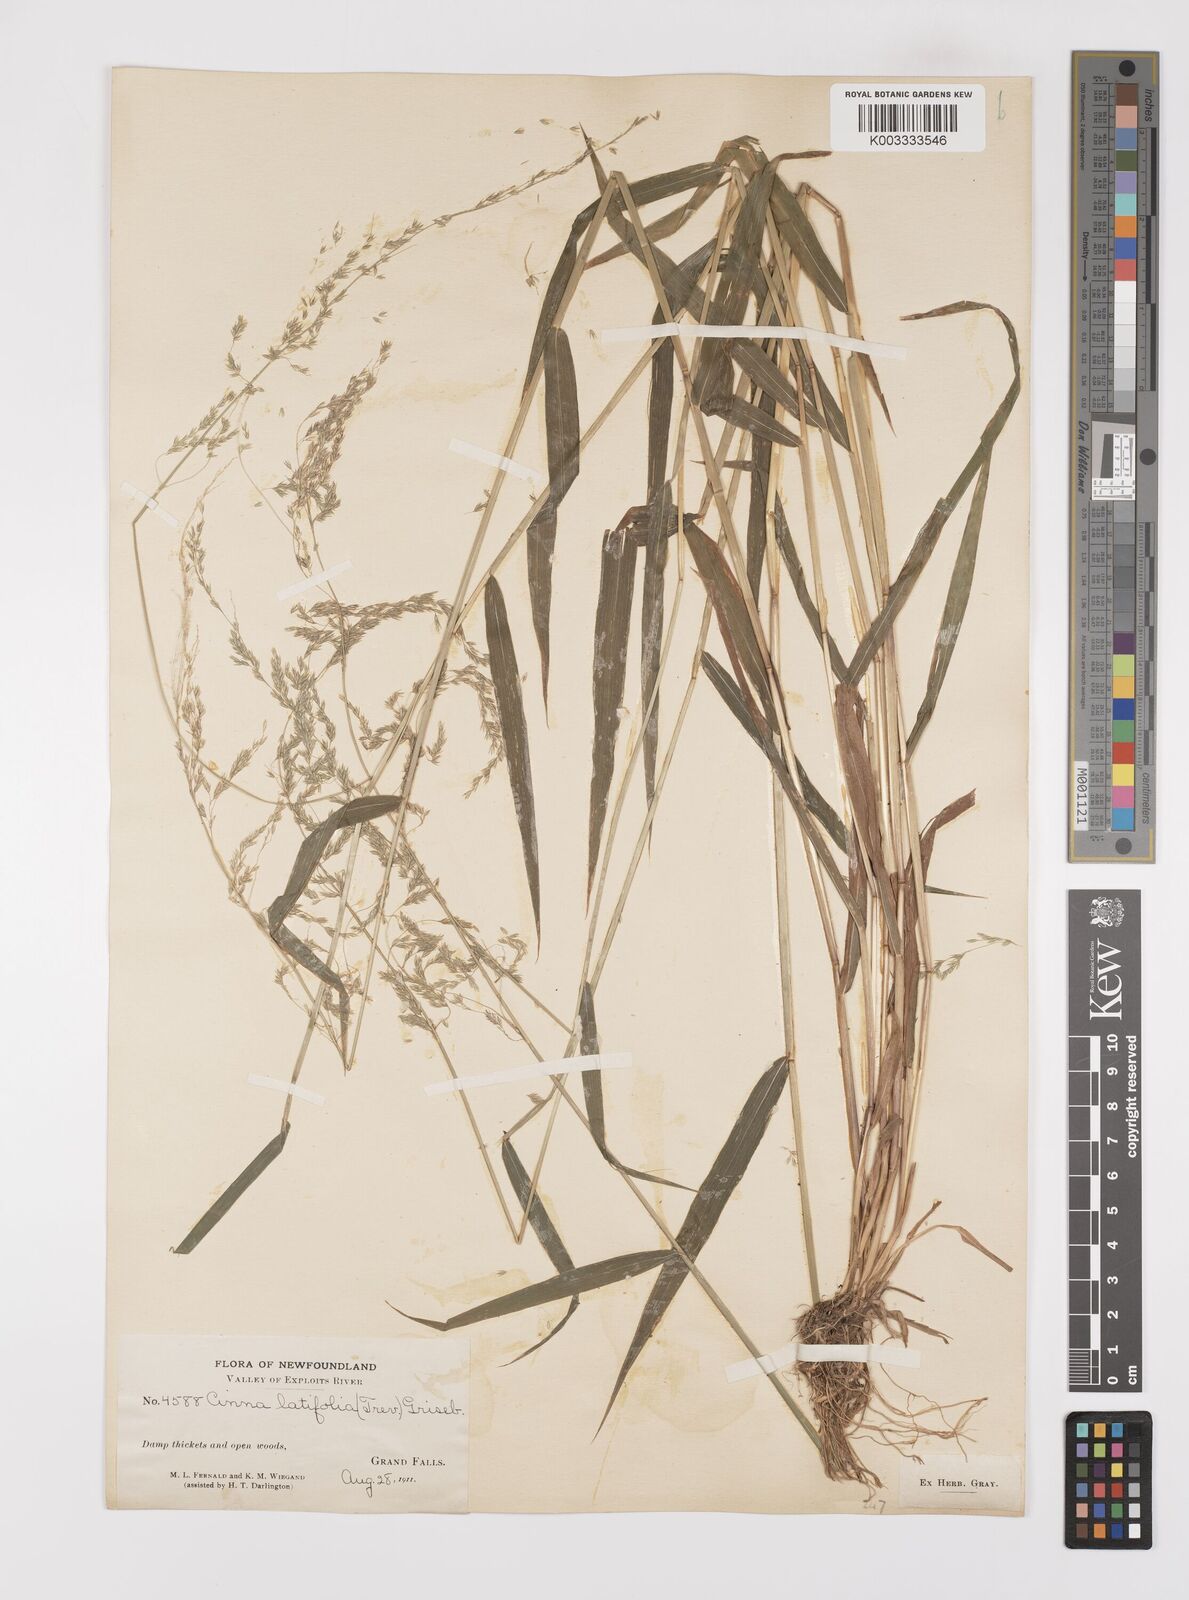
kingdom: Plantae
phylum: Tracheophyta
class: Liliopsida
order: Poales
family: Poaceae
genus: Cinna
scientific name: Cinna latifolia
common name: Drooping woodreed
